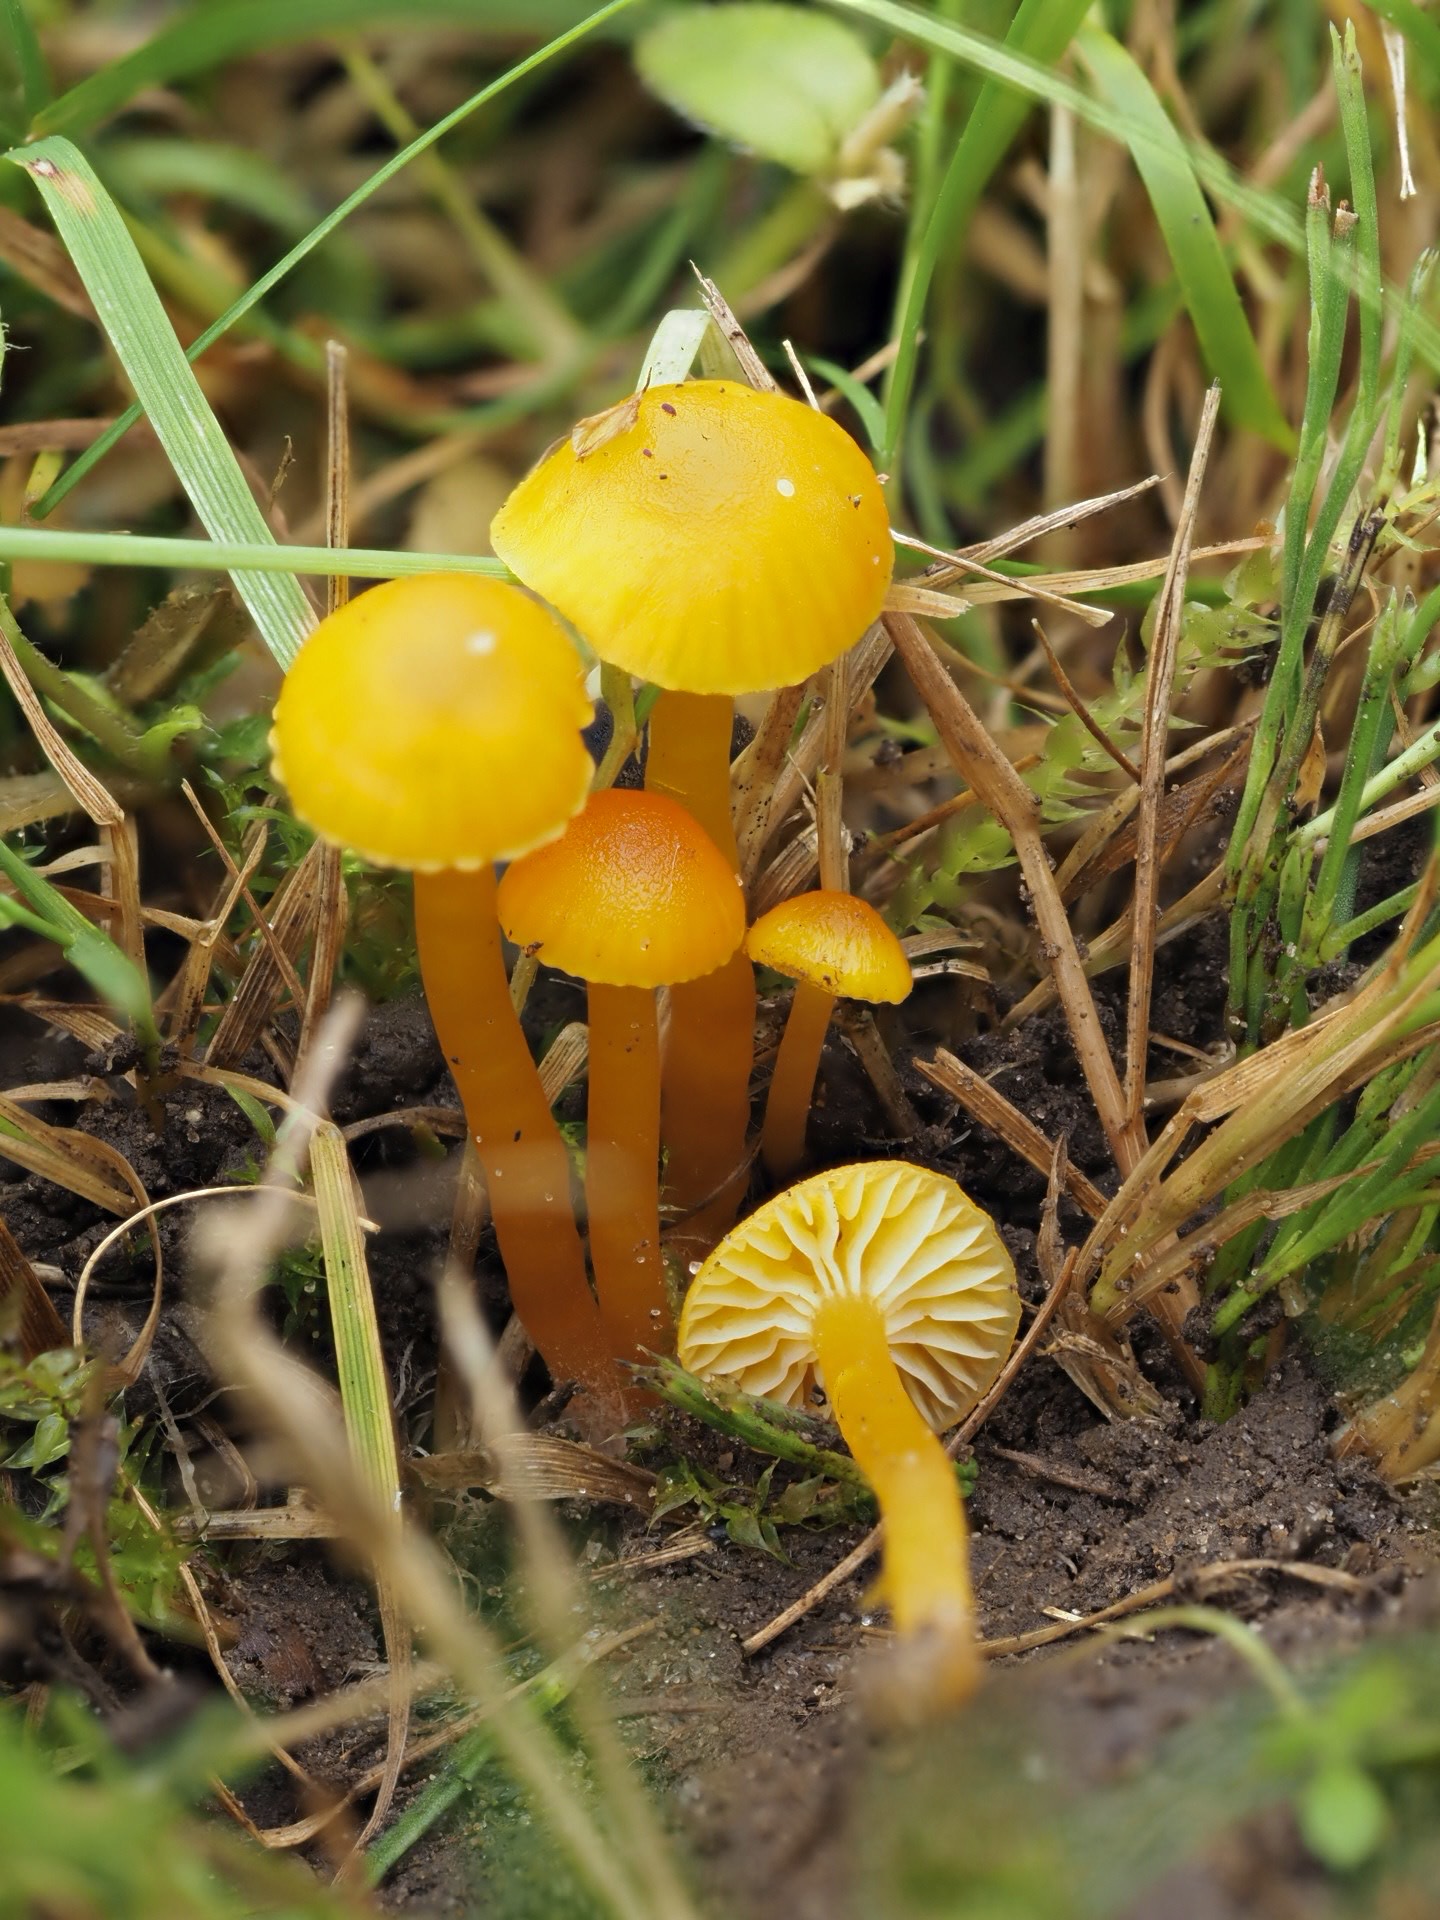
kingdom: Fungi
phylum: Basidiomycota
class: Agaricomycetes
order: Agaricales
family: Hygrophoraceae
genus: Hygrocybe
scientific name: Hygrocybe ceracea
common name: voksgul vokshat
